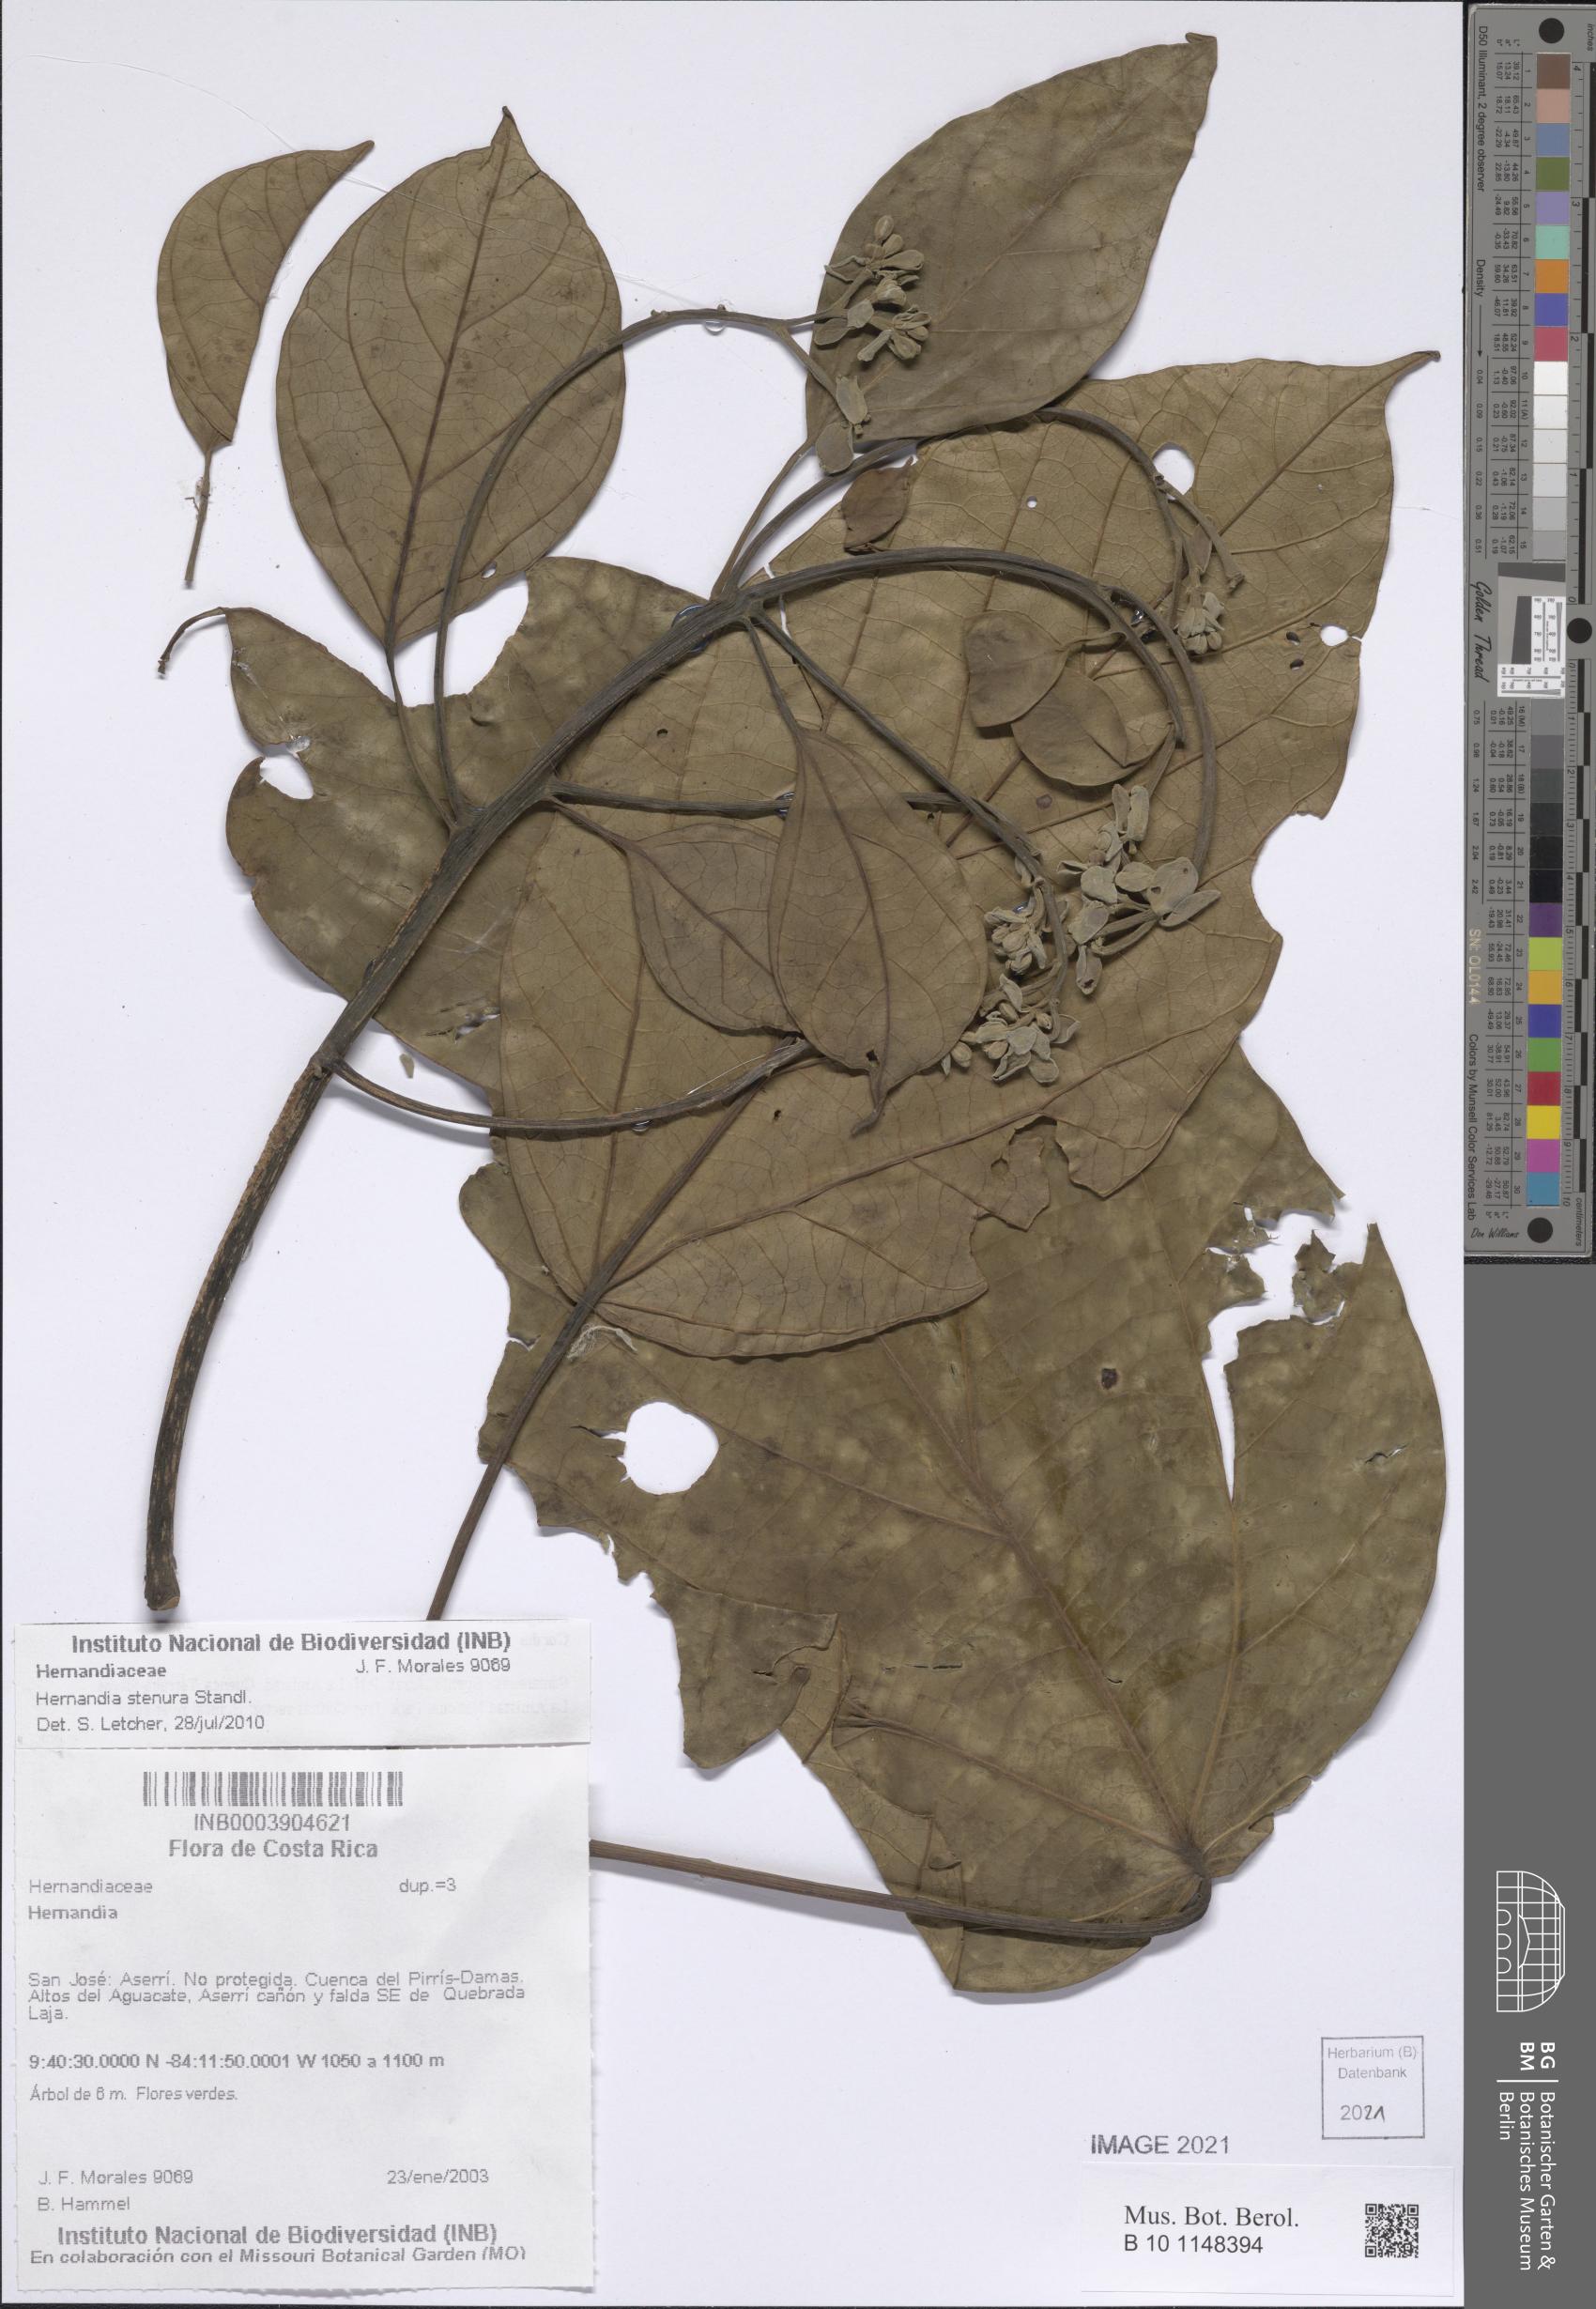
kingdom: Plantae
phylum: Tracheophyta
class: Magnoliopsida
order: Laurales
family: Hernandiaceae
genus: Hernandia
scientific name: Hernandia stenura
